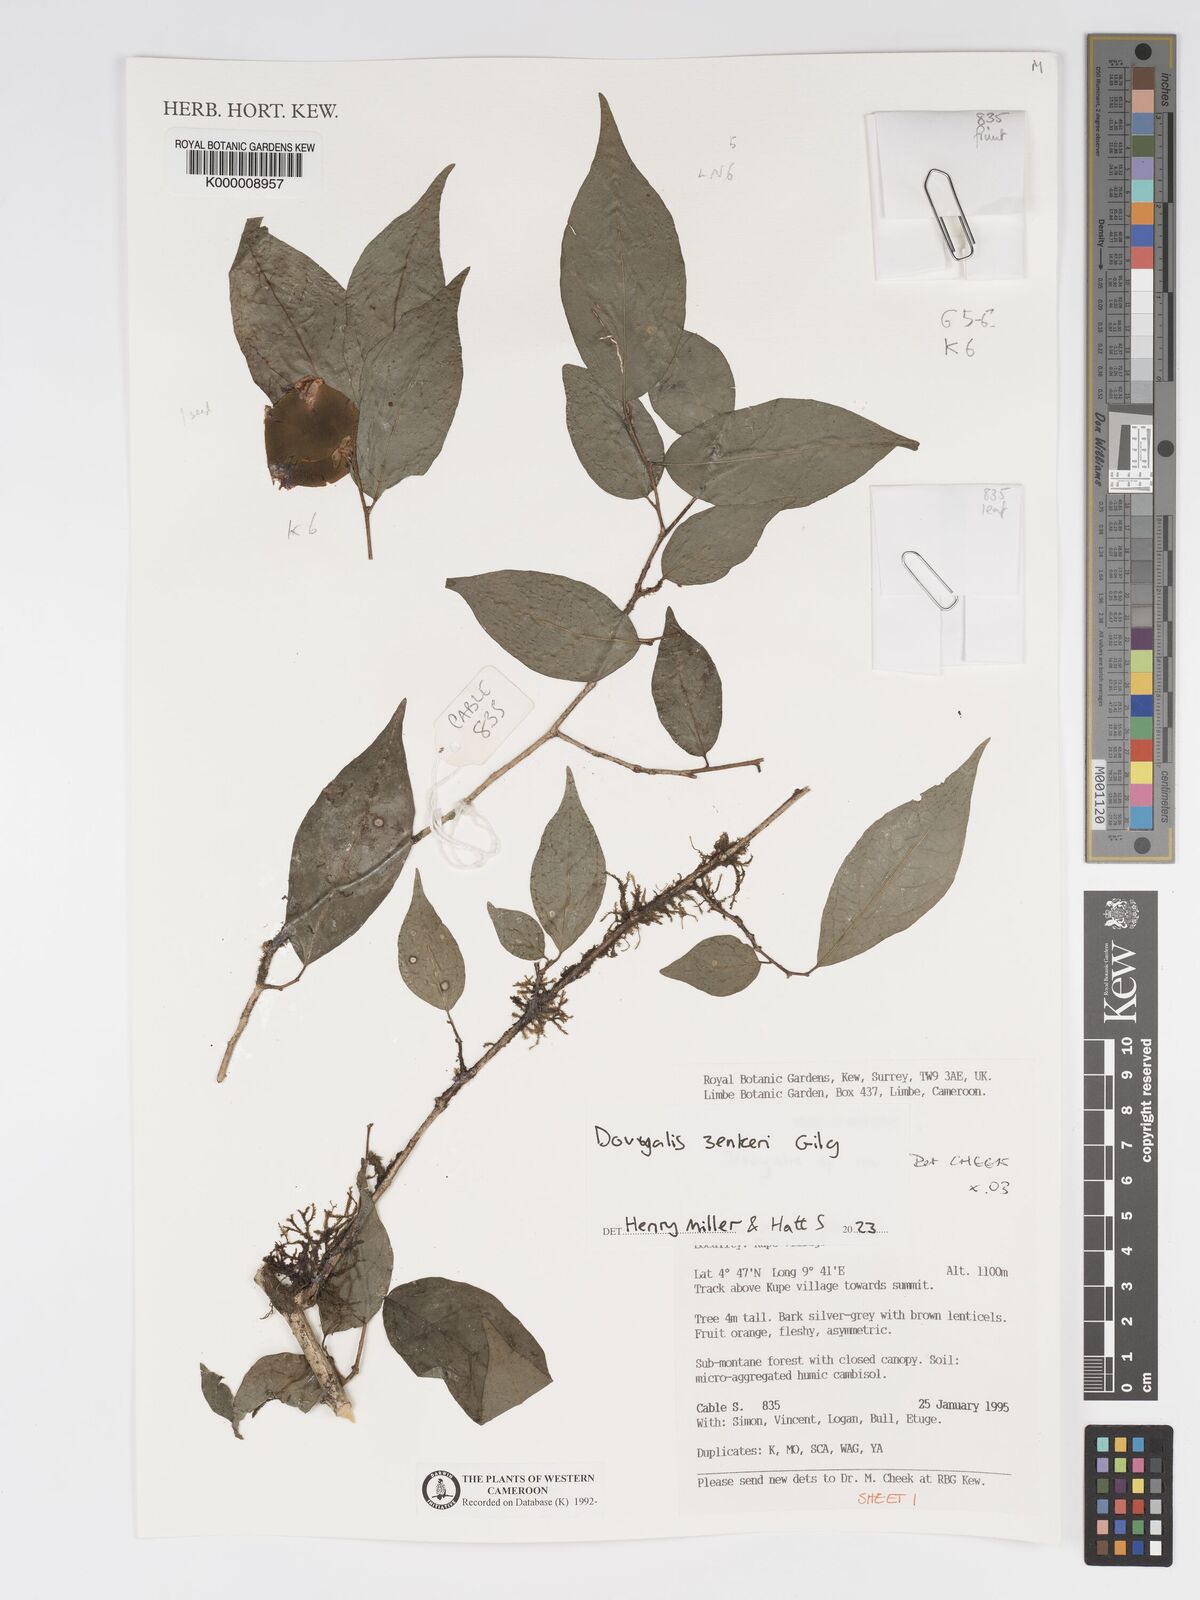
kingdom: Plantae
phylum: Tracheophyta
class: Magnoliopsida
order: Malpighiales
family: Salicaceae
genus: Dovyalis
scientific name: Dovyalis
